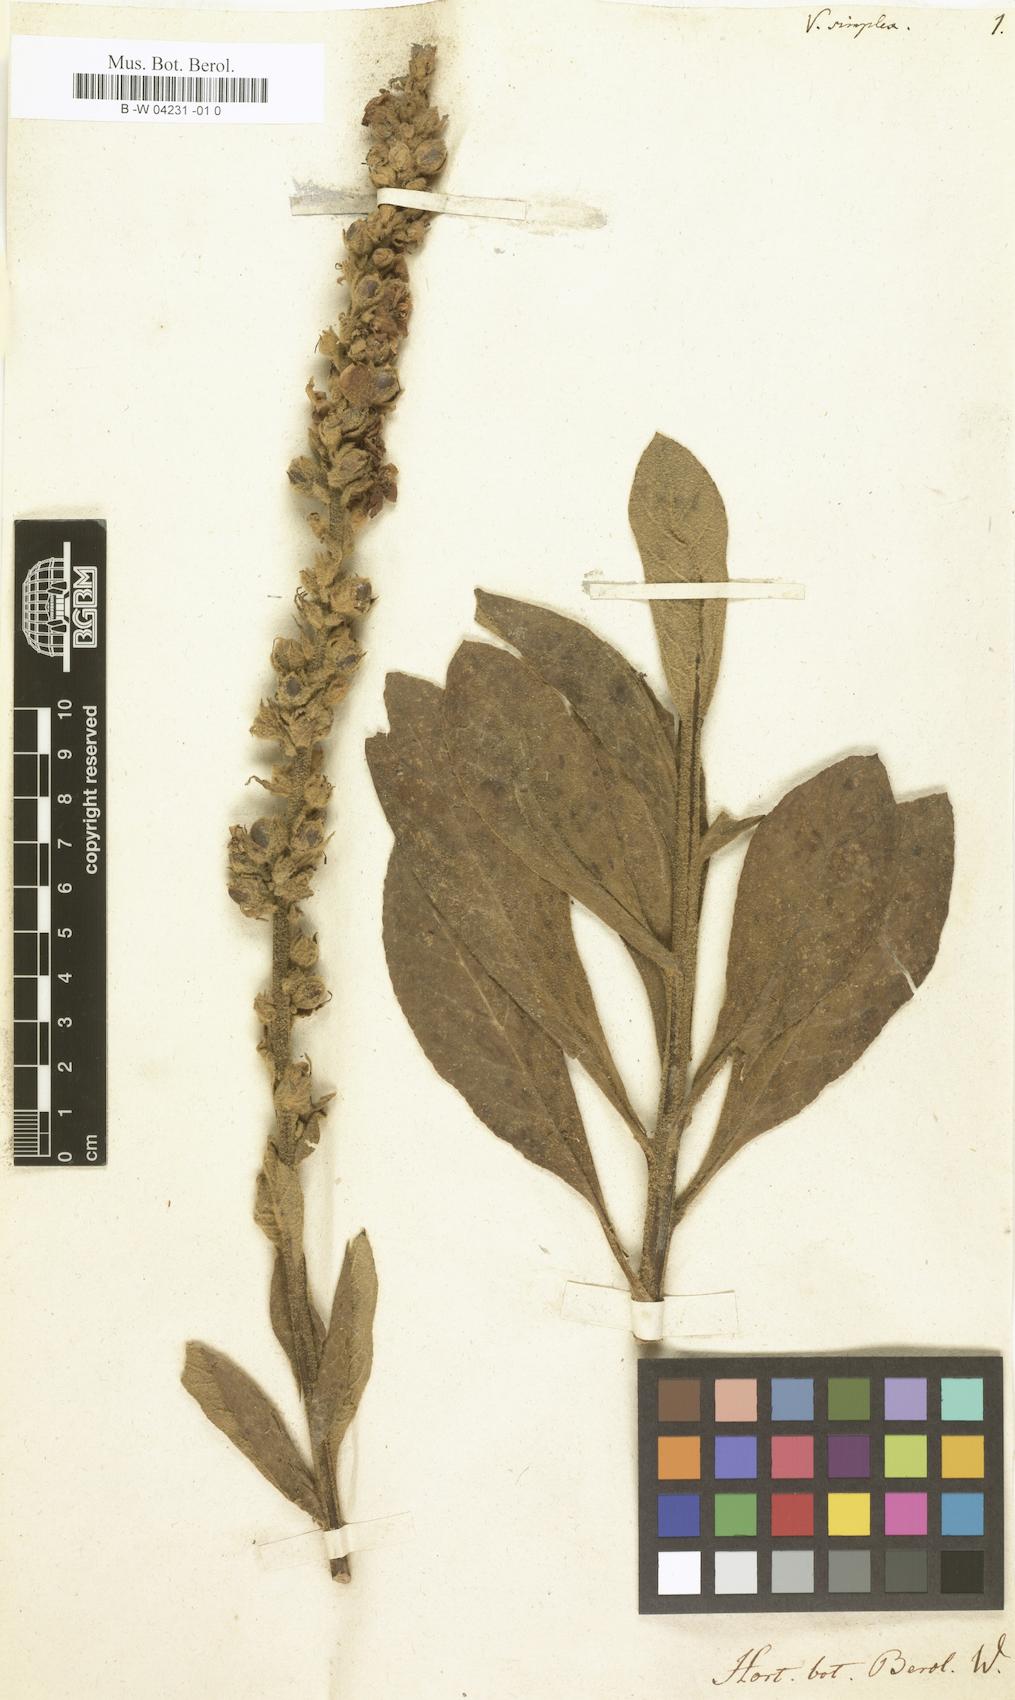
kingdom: Plantae
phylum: Tracheophyta
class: Magnoliopsida
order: Lamiales
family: Scrophulariaceae
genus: Verbascum
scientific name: Verbascum simplex
